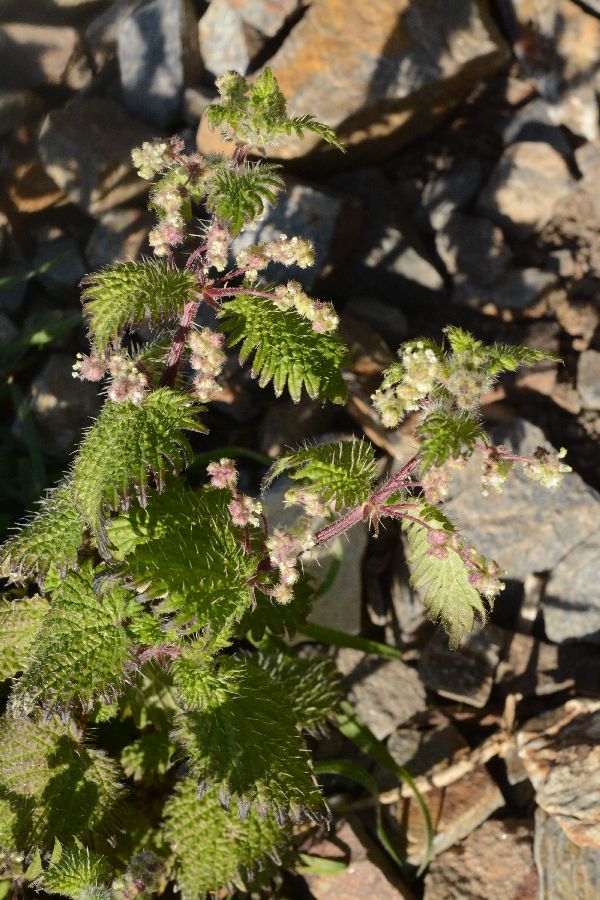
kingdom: Plantae
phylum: Tracheophyta
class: Magnoliopsida
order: Rosales
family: Urticaceae
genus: Urtica
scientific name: Urtica pilulifera
